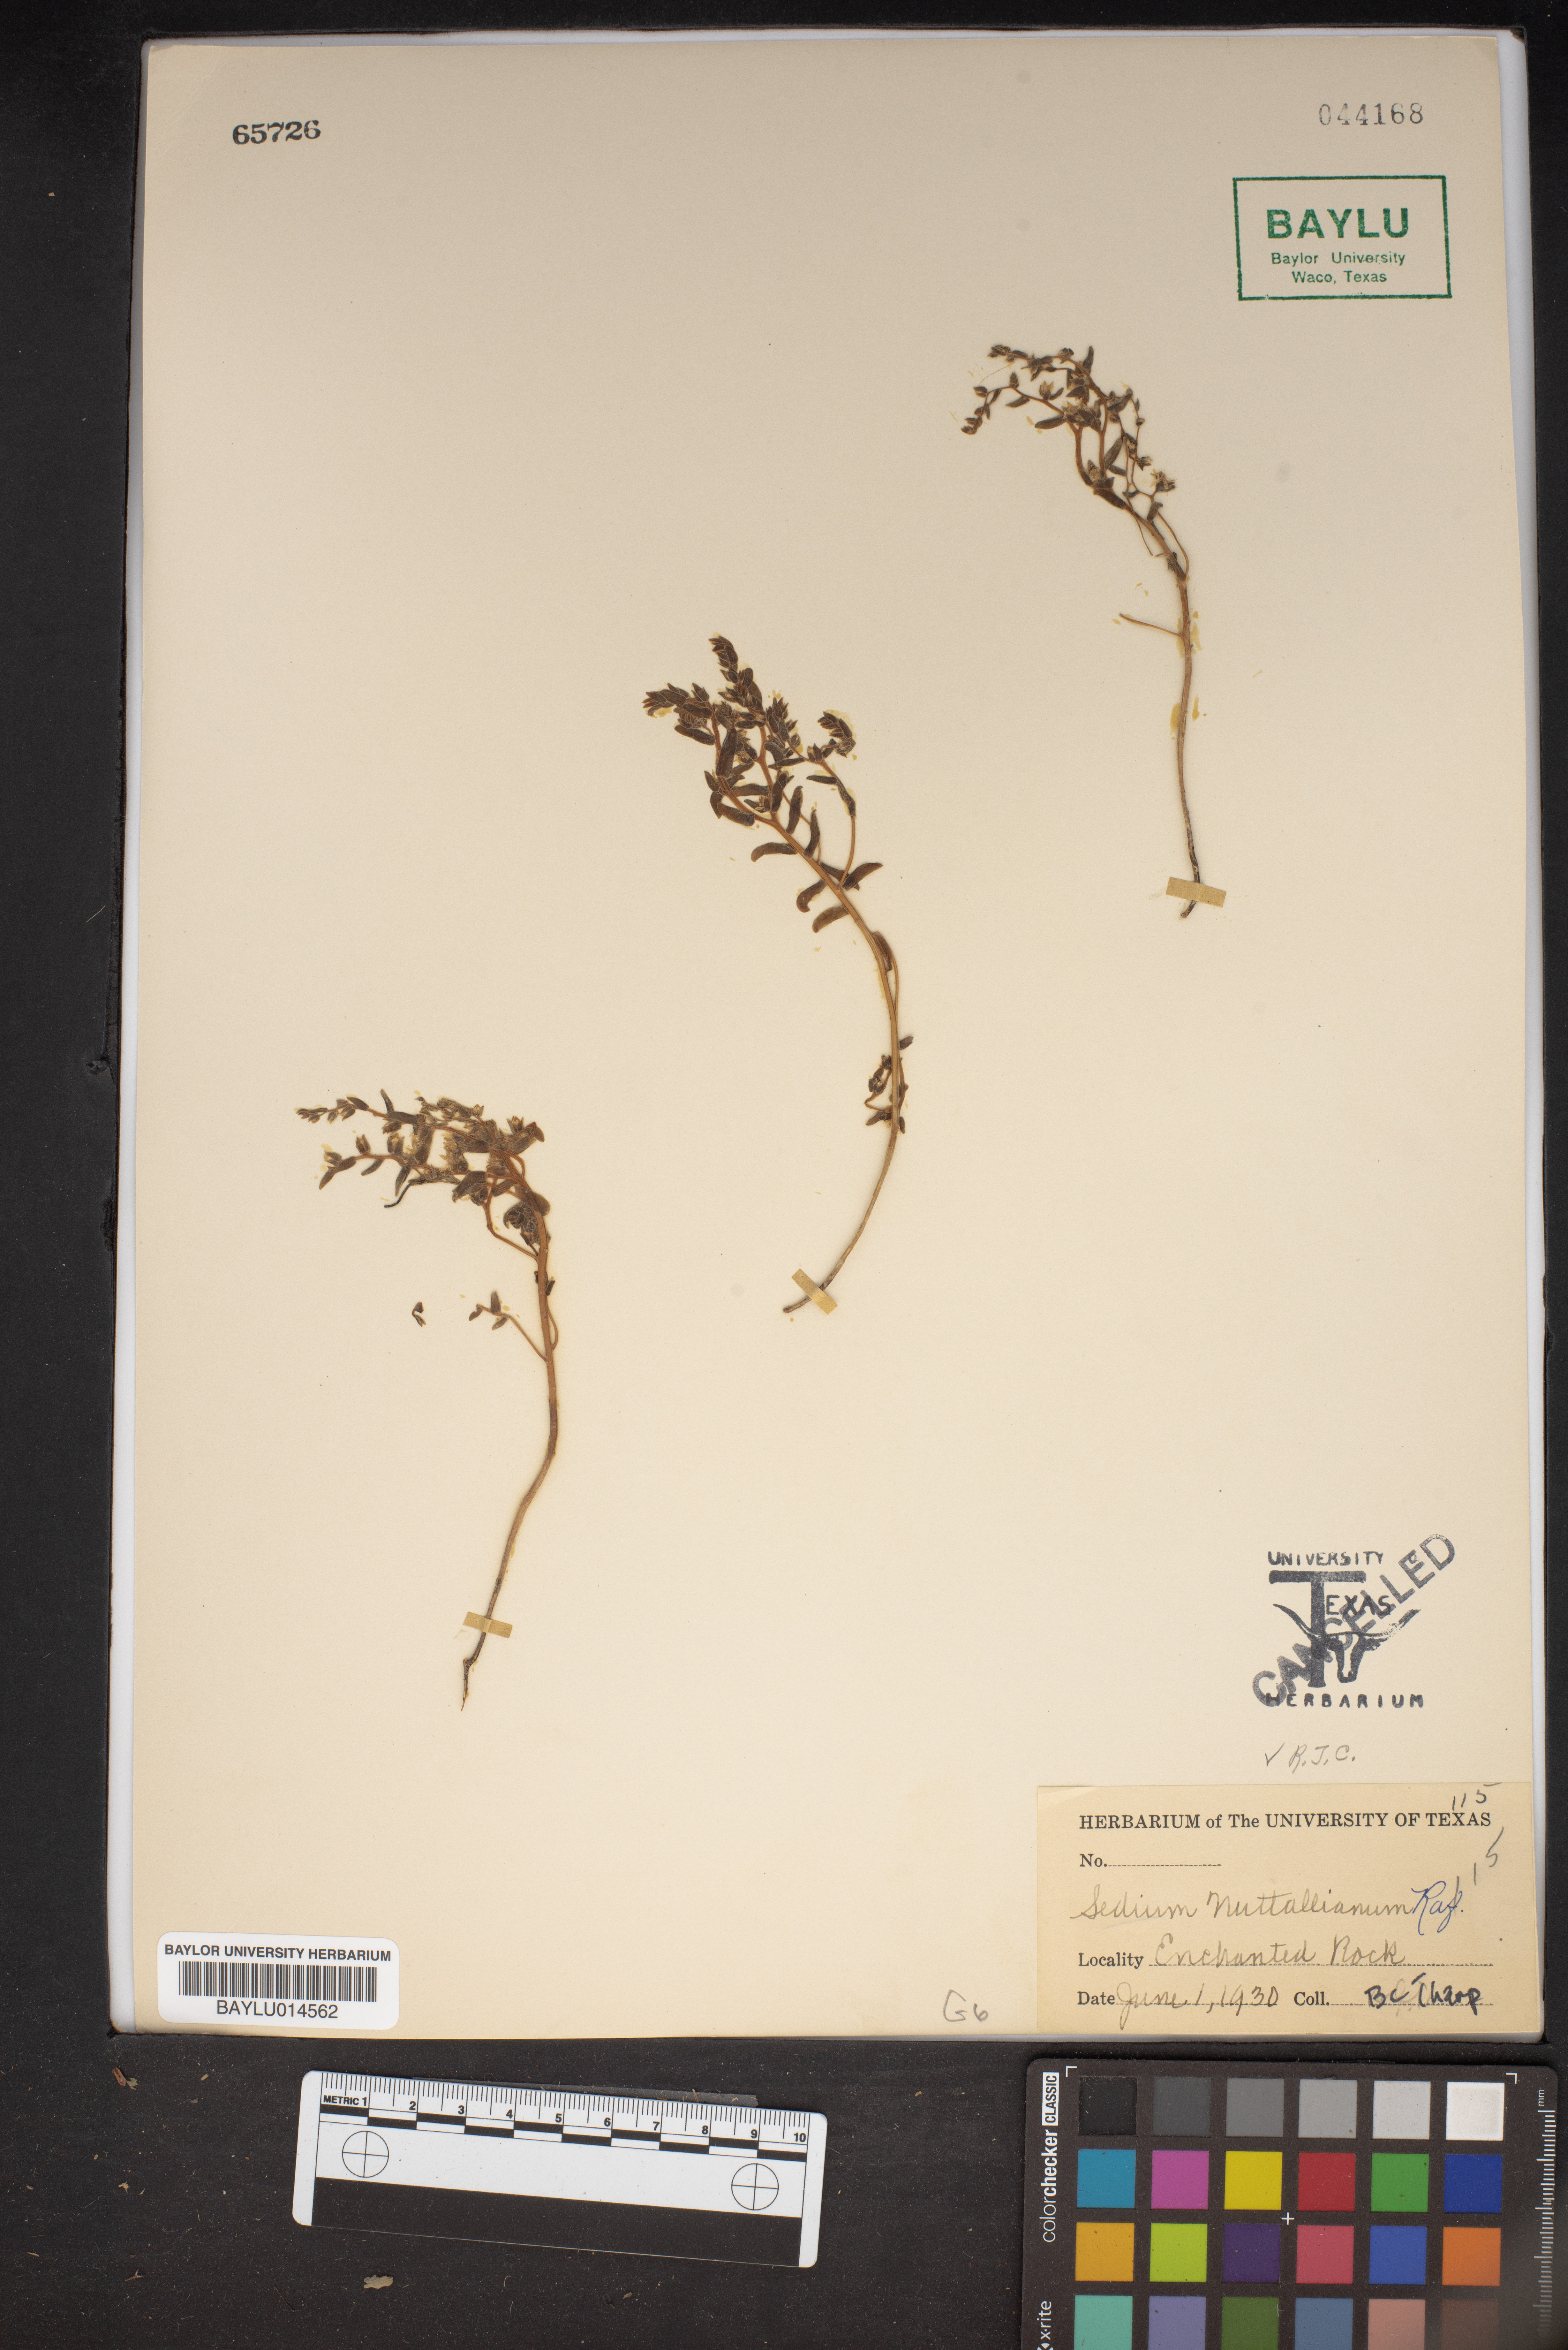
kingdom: Plantae
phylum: Tracheophyta
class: Magnoliopsida
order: Saxifragales
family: Crassulaceae
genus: Sedum
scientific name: Sedum nuttallii
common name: Yellow stonecrop
